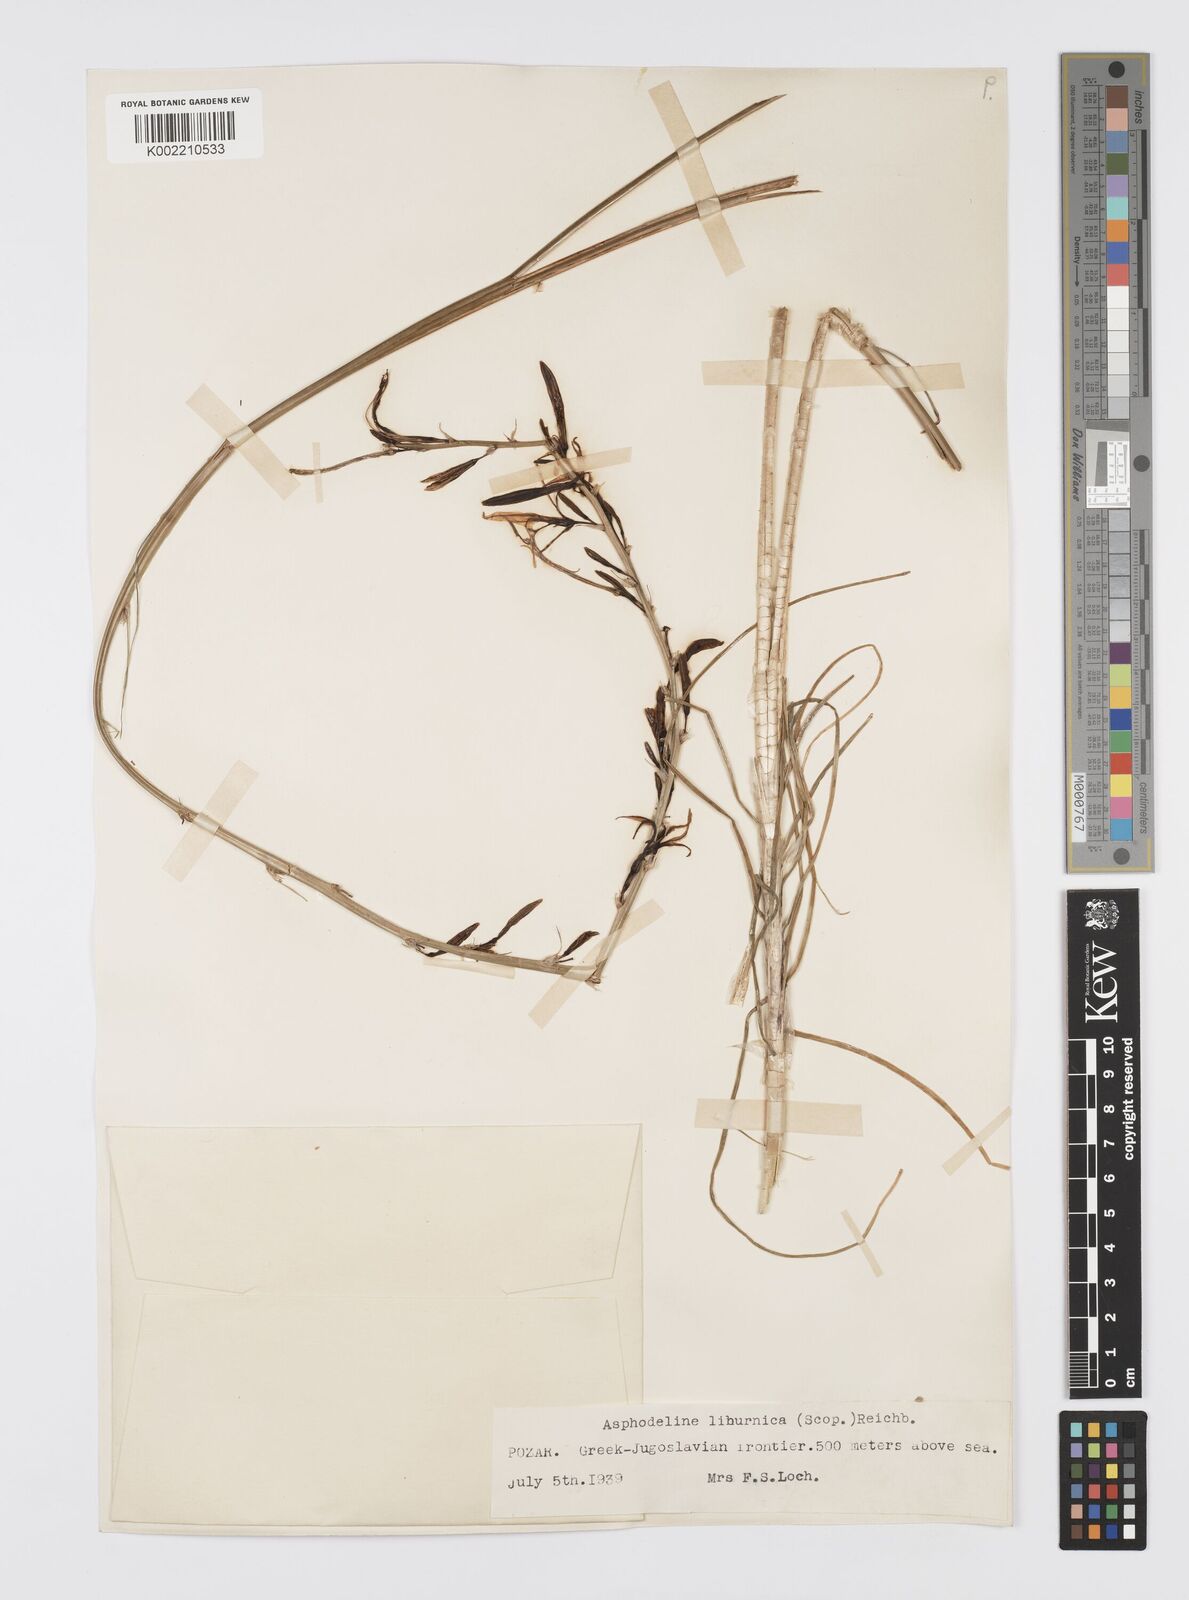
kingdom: Plantae
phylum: Tracheophyta
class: Liliopsida
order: Asparagales
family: Asphodelaceae
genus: Asphodeline
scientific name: Asphodeline liburnica
